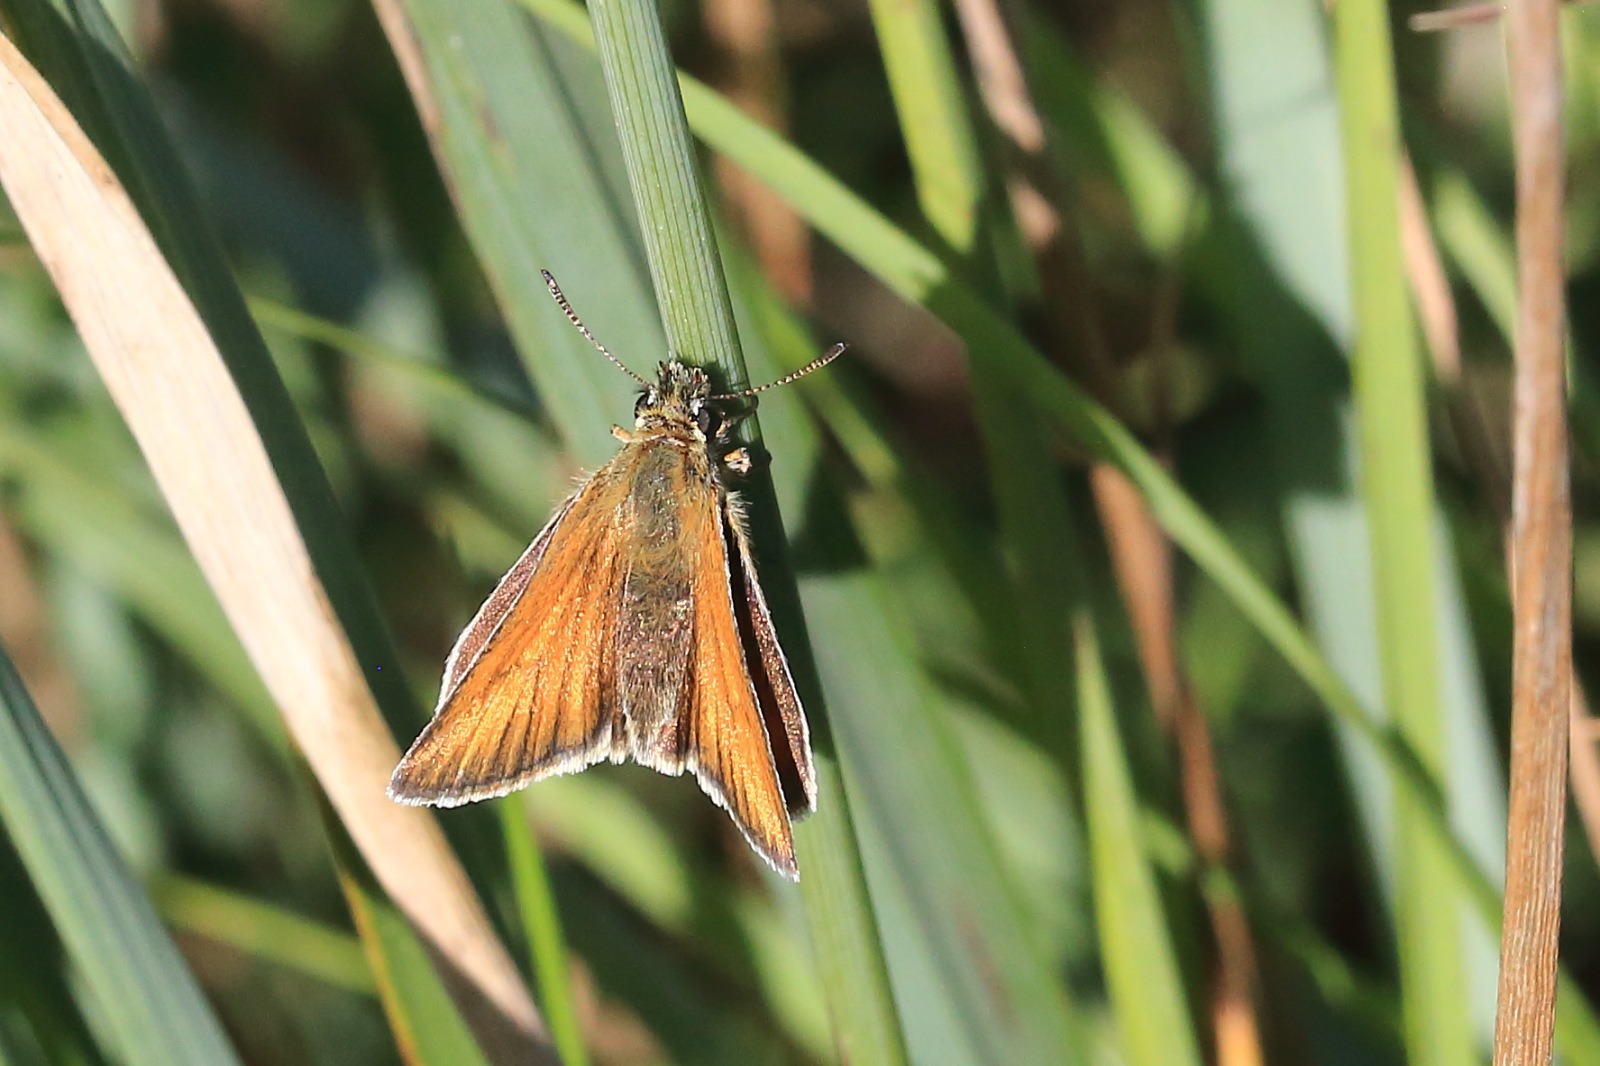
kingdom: Animalia
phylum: Arthropoda
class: Insecta
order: Lepidoptera
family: Hesperiidae
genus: Thymelicus
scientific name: Thymelicus lineola
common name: Stregbredpande
